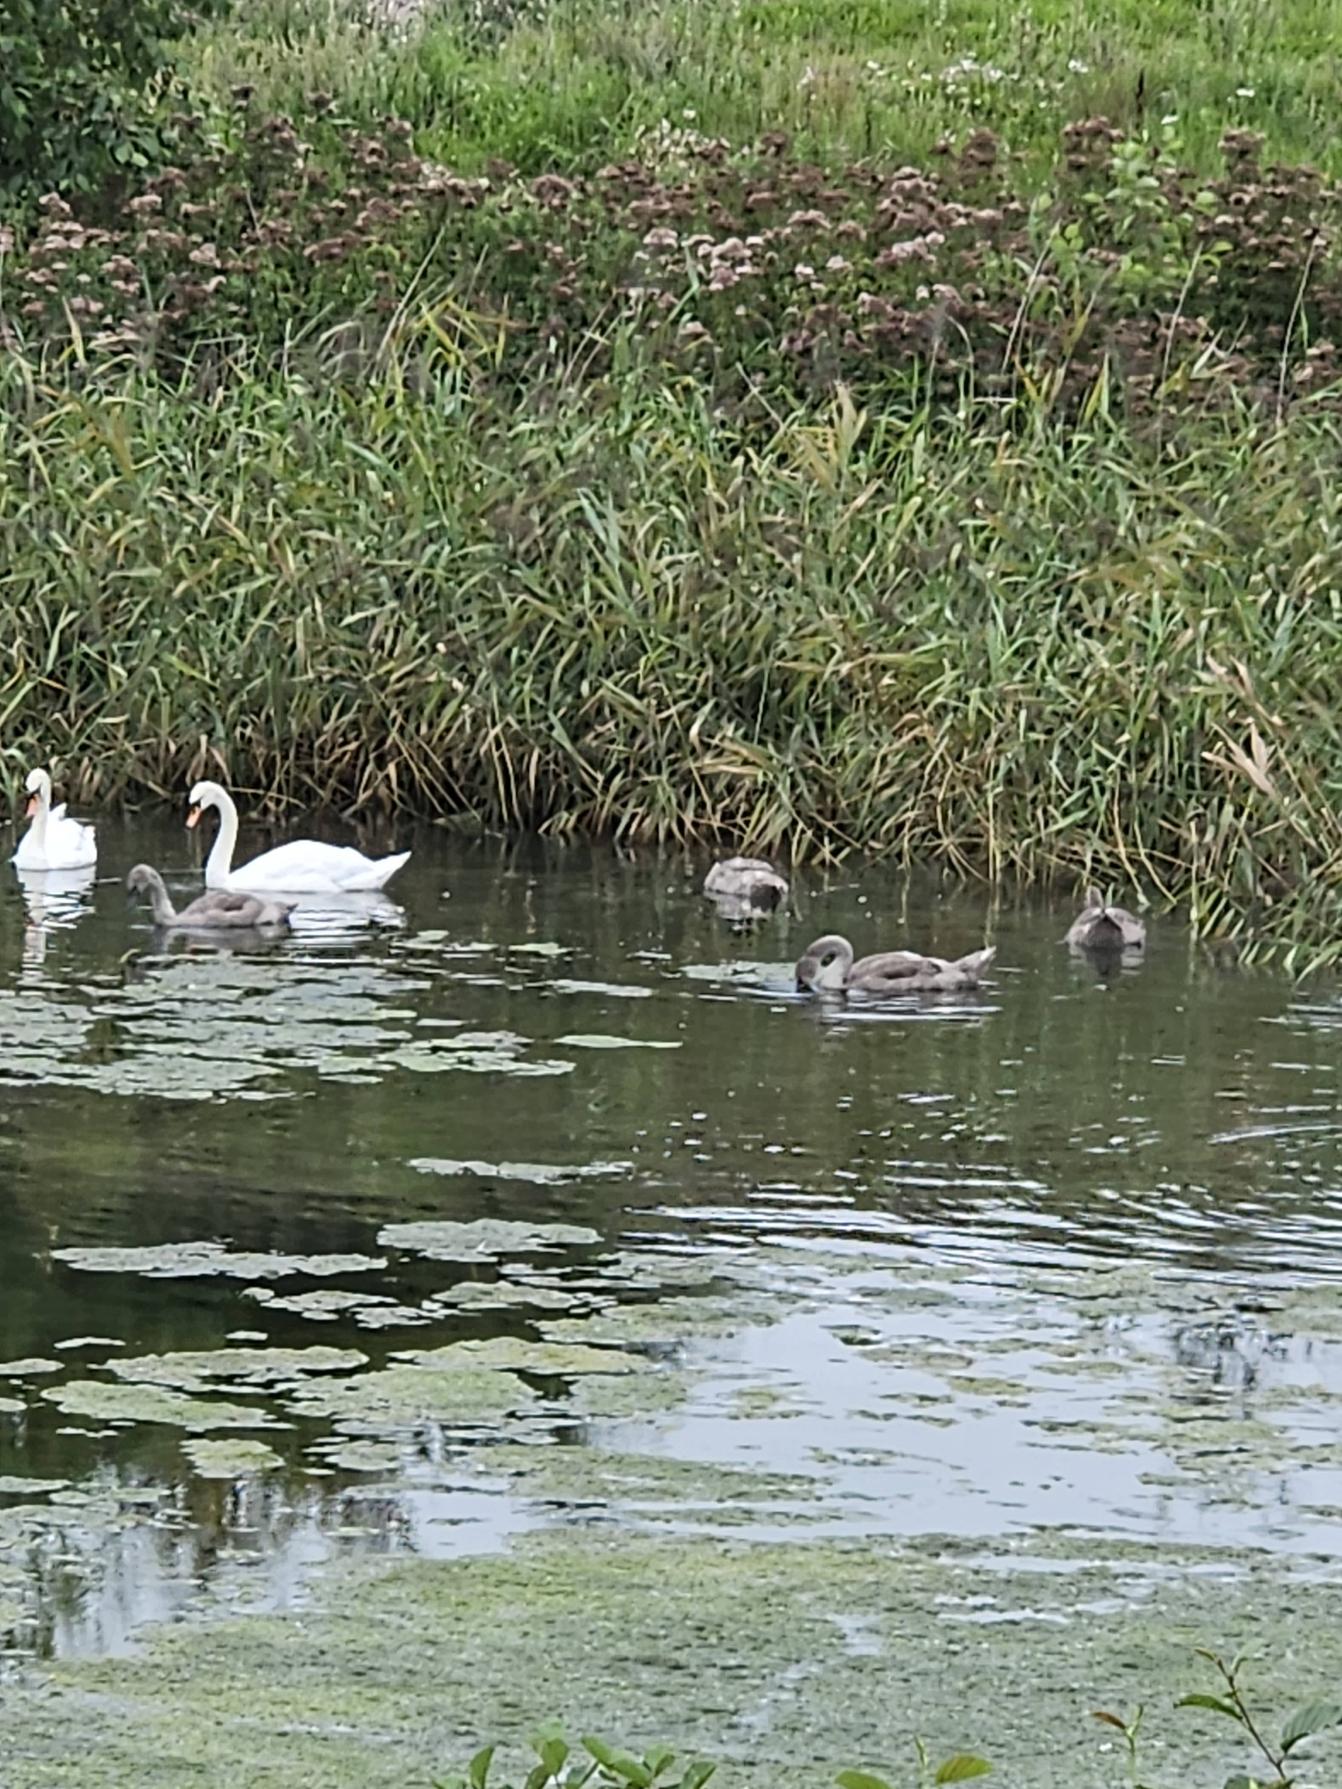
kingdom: Animalia
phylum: Chordata
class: Aves
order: Anseriformes
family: Anatidae
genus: Cygnus
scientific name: Cygnus olor
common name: Knopsvane
